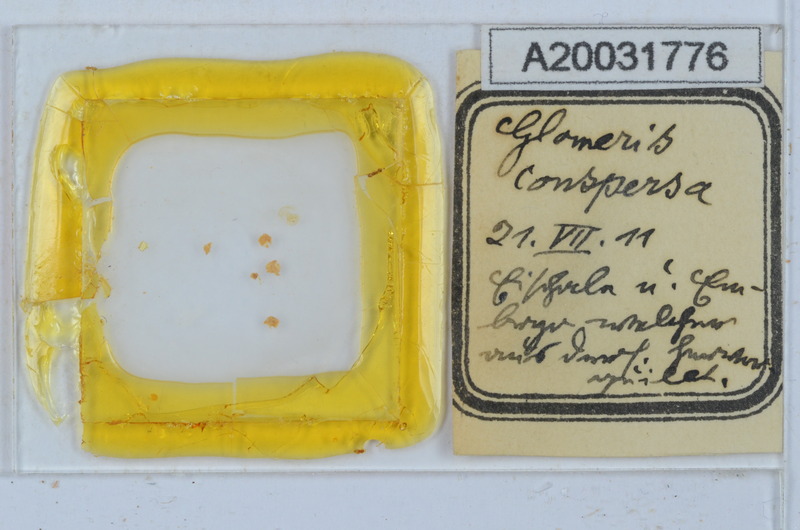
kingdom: Animalia
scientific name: Animalia
